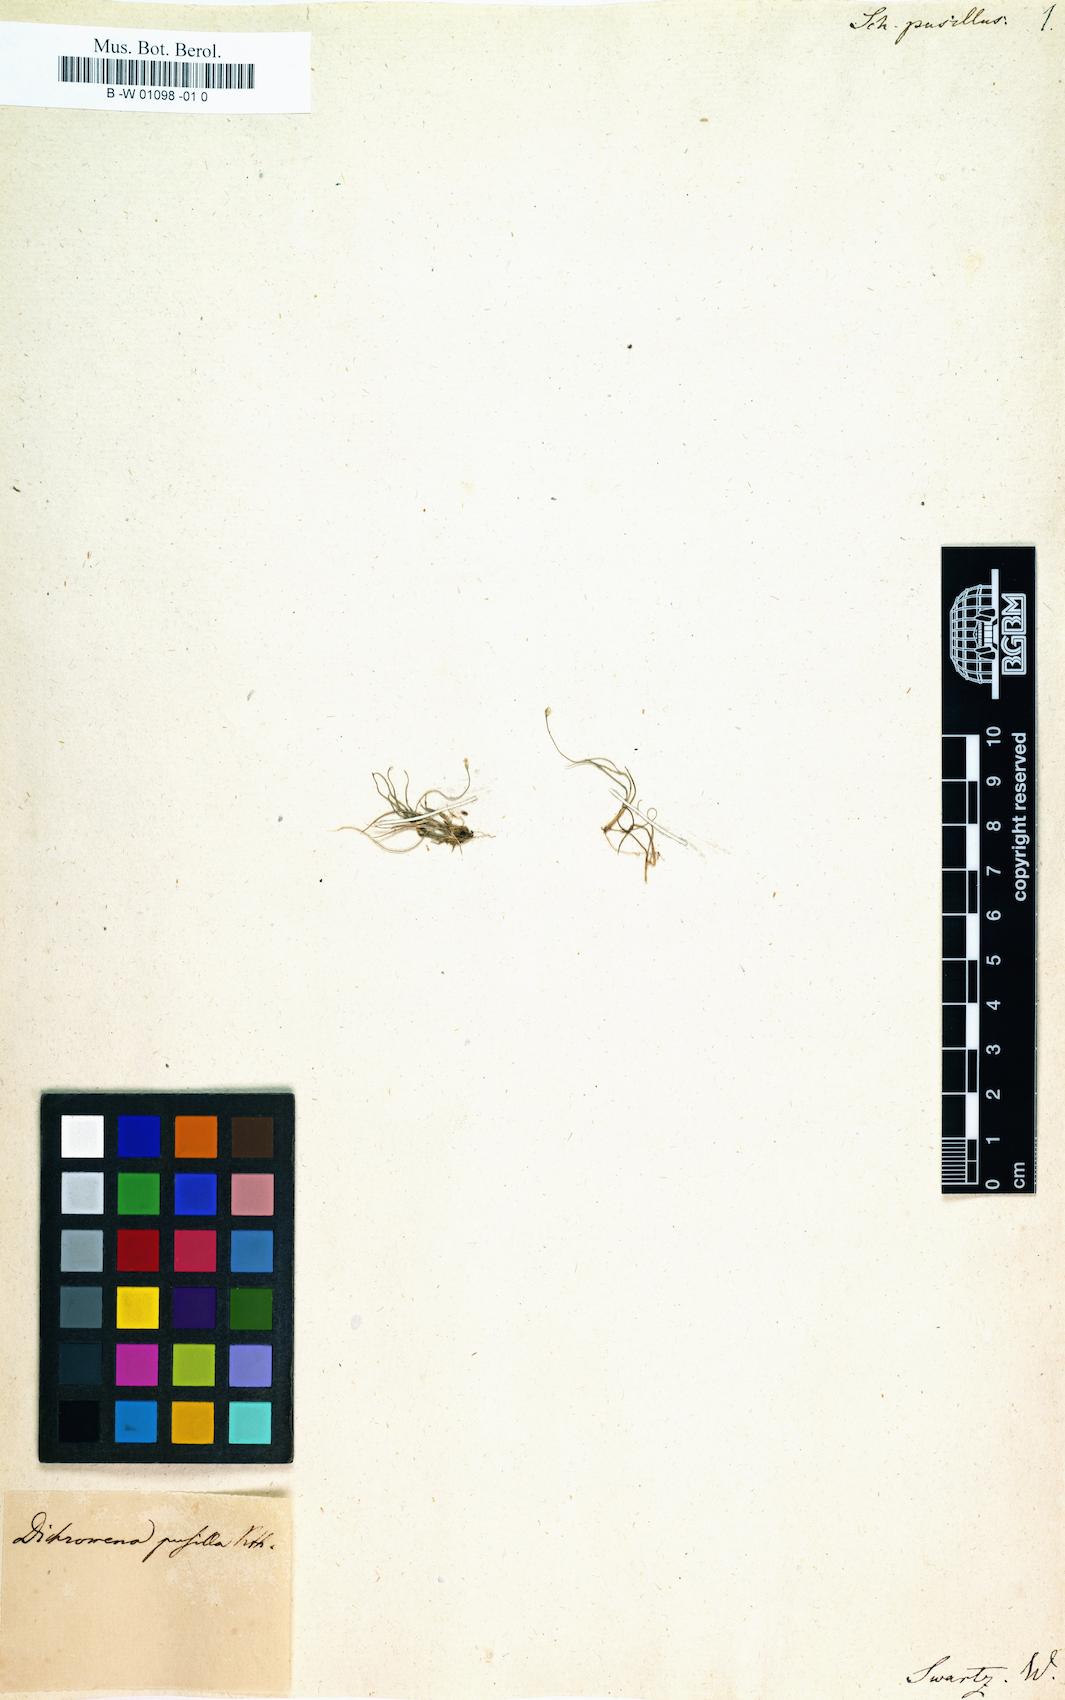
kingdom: Plantae
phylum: Tracheophyta
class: Liliopsida
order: Poales
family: Cyperaceae
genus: Rhynchospora
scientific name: Rhynchospora berteroi
